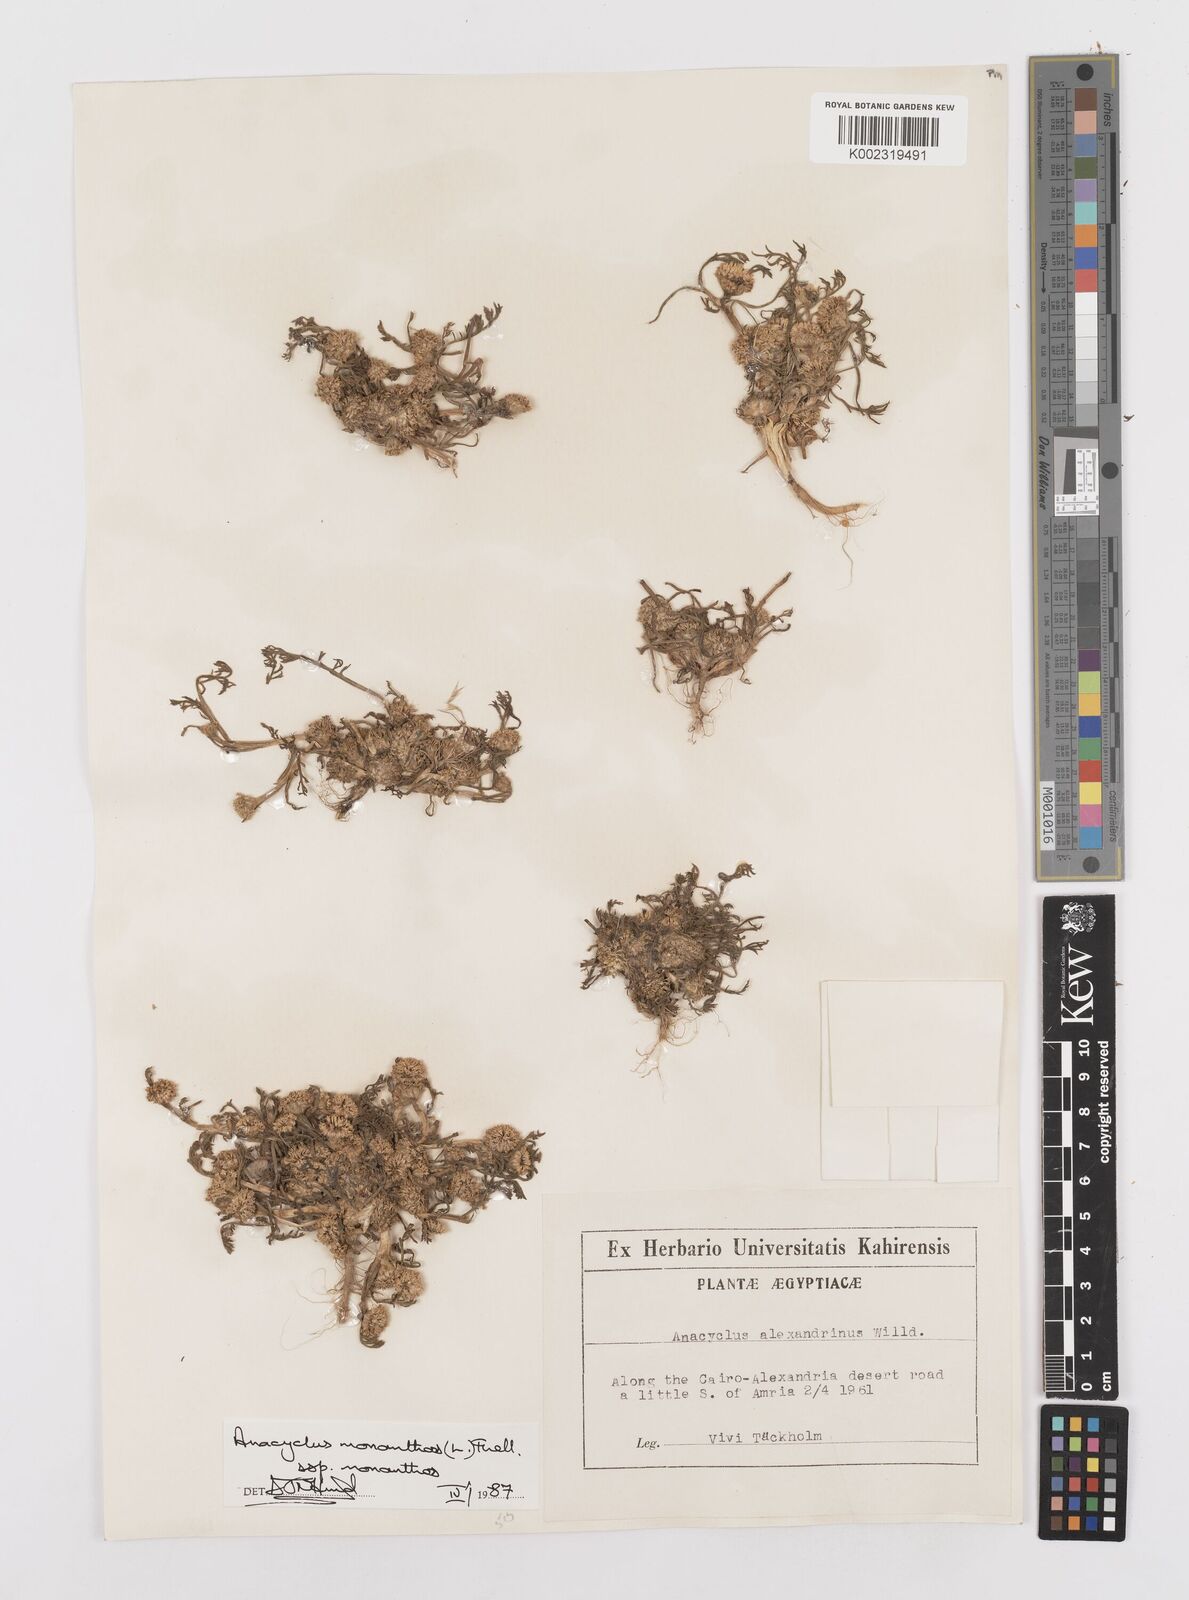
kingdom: Plantae
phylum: Tracheophyta
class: Magnoliopsida
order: Asterales
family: Asteraceae
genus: Anacyclus
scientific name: Anacyclus monanthos
